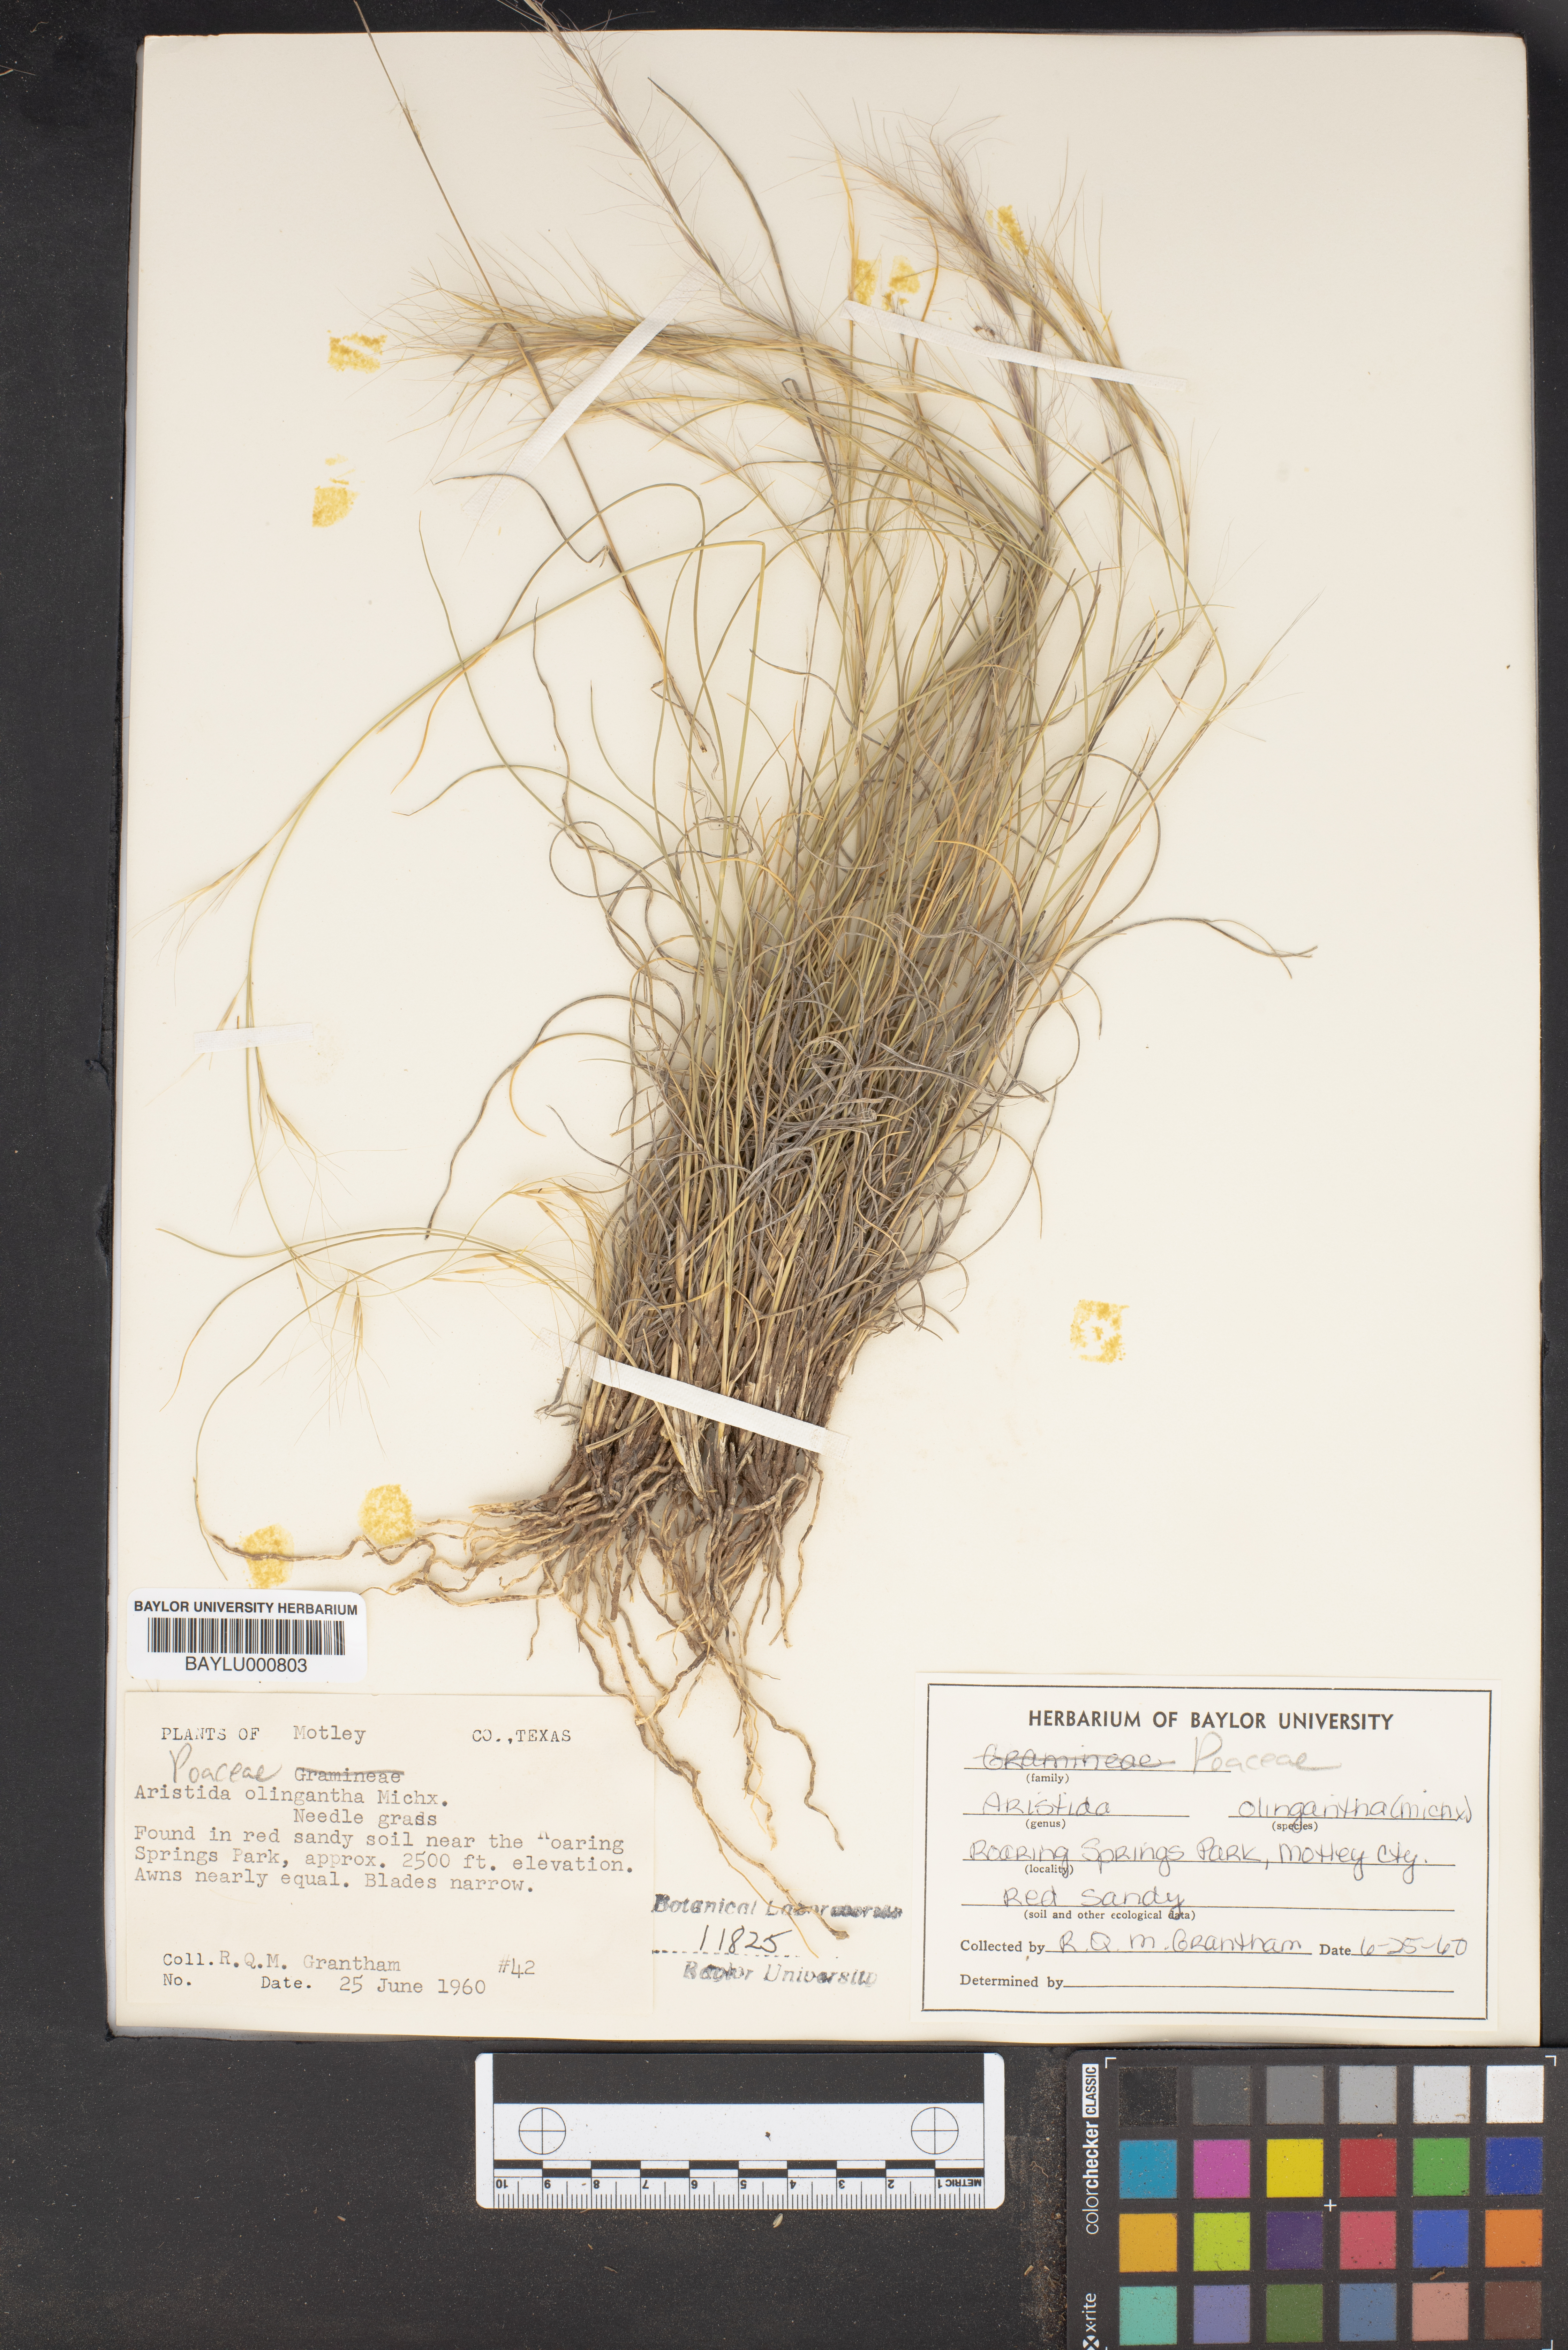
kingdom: Plantae
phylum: Tracheophyta
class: Liliopsida
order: Poales
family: Poaceae
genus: Aristida
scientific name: Aristida oligantha
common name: Few-flowered aristida
